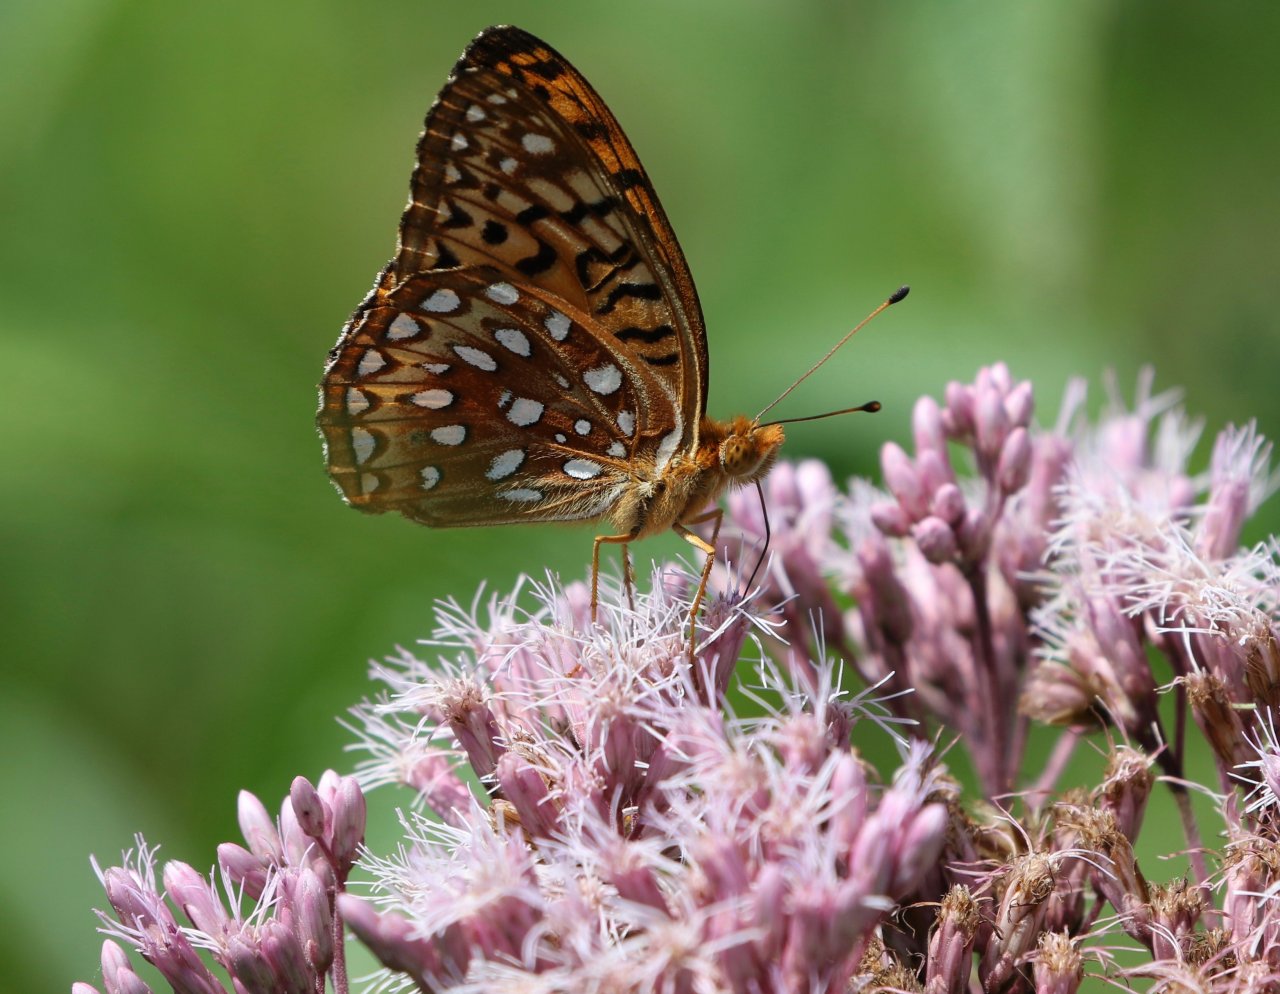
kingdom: Animalia
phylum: Arthropoda
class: Insecta
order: Lepidoptera
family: Nymphalidae
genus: Speyeria
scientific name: Speyeria aphrodite
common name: Aphrodite Fritillary
